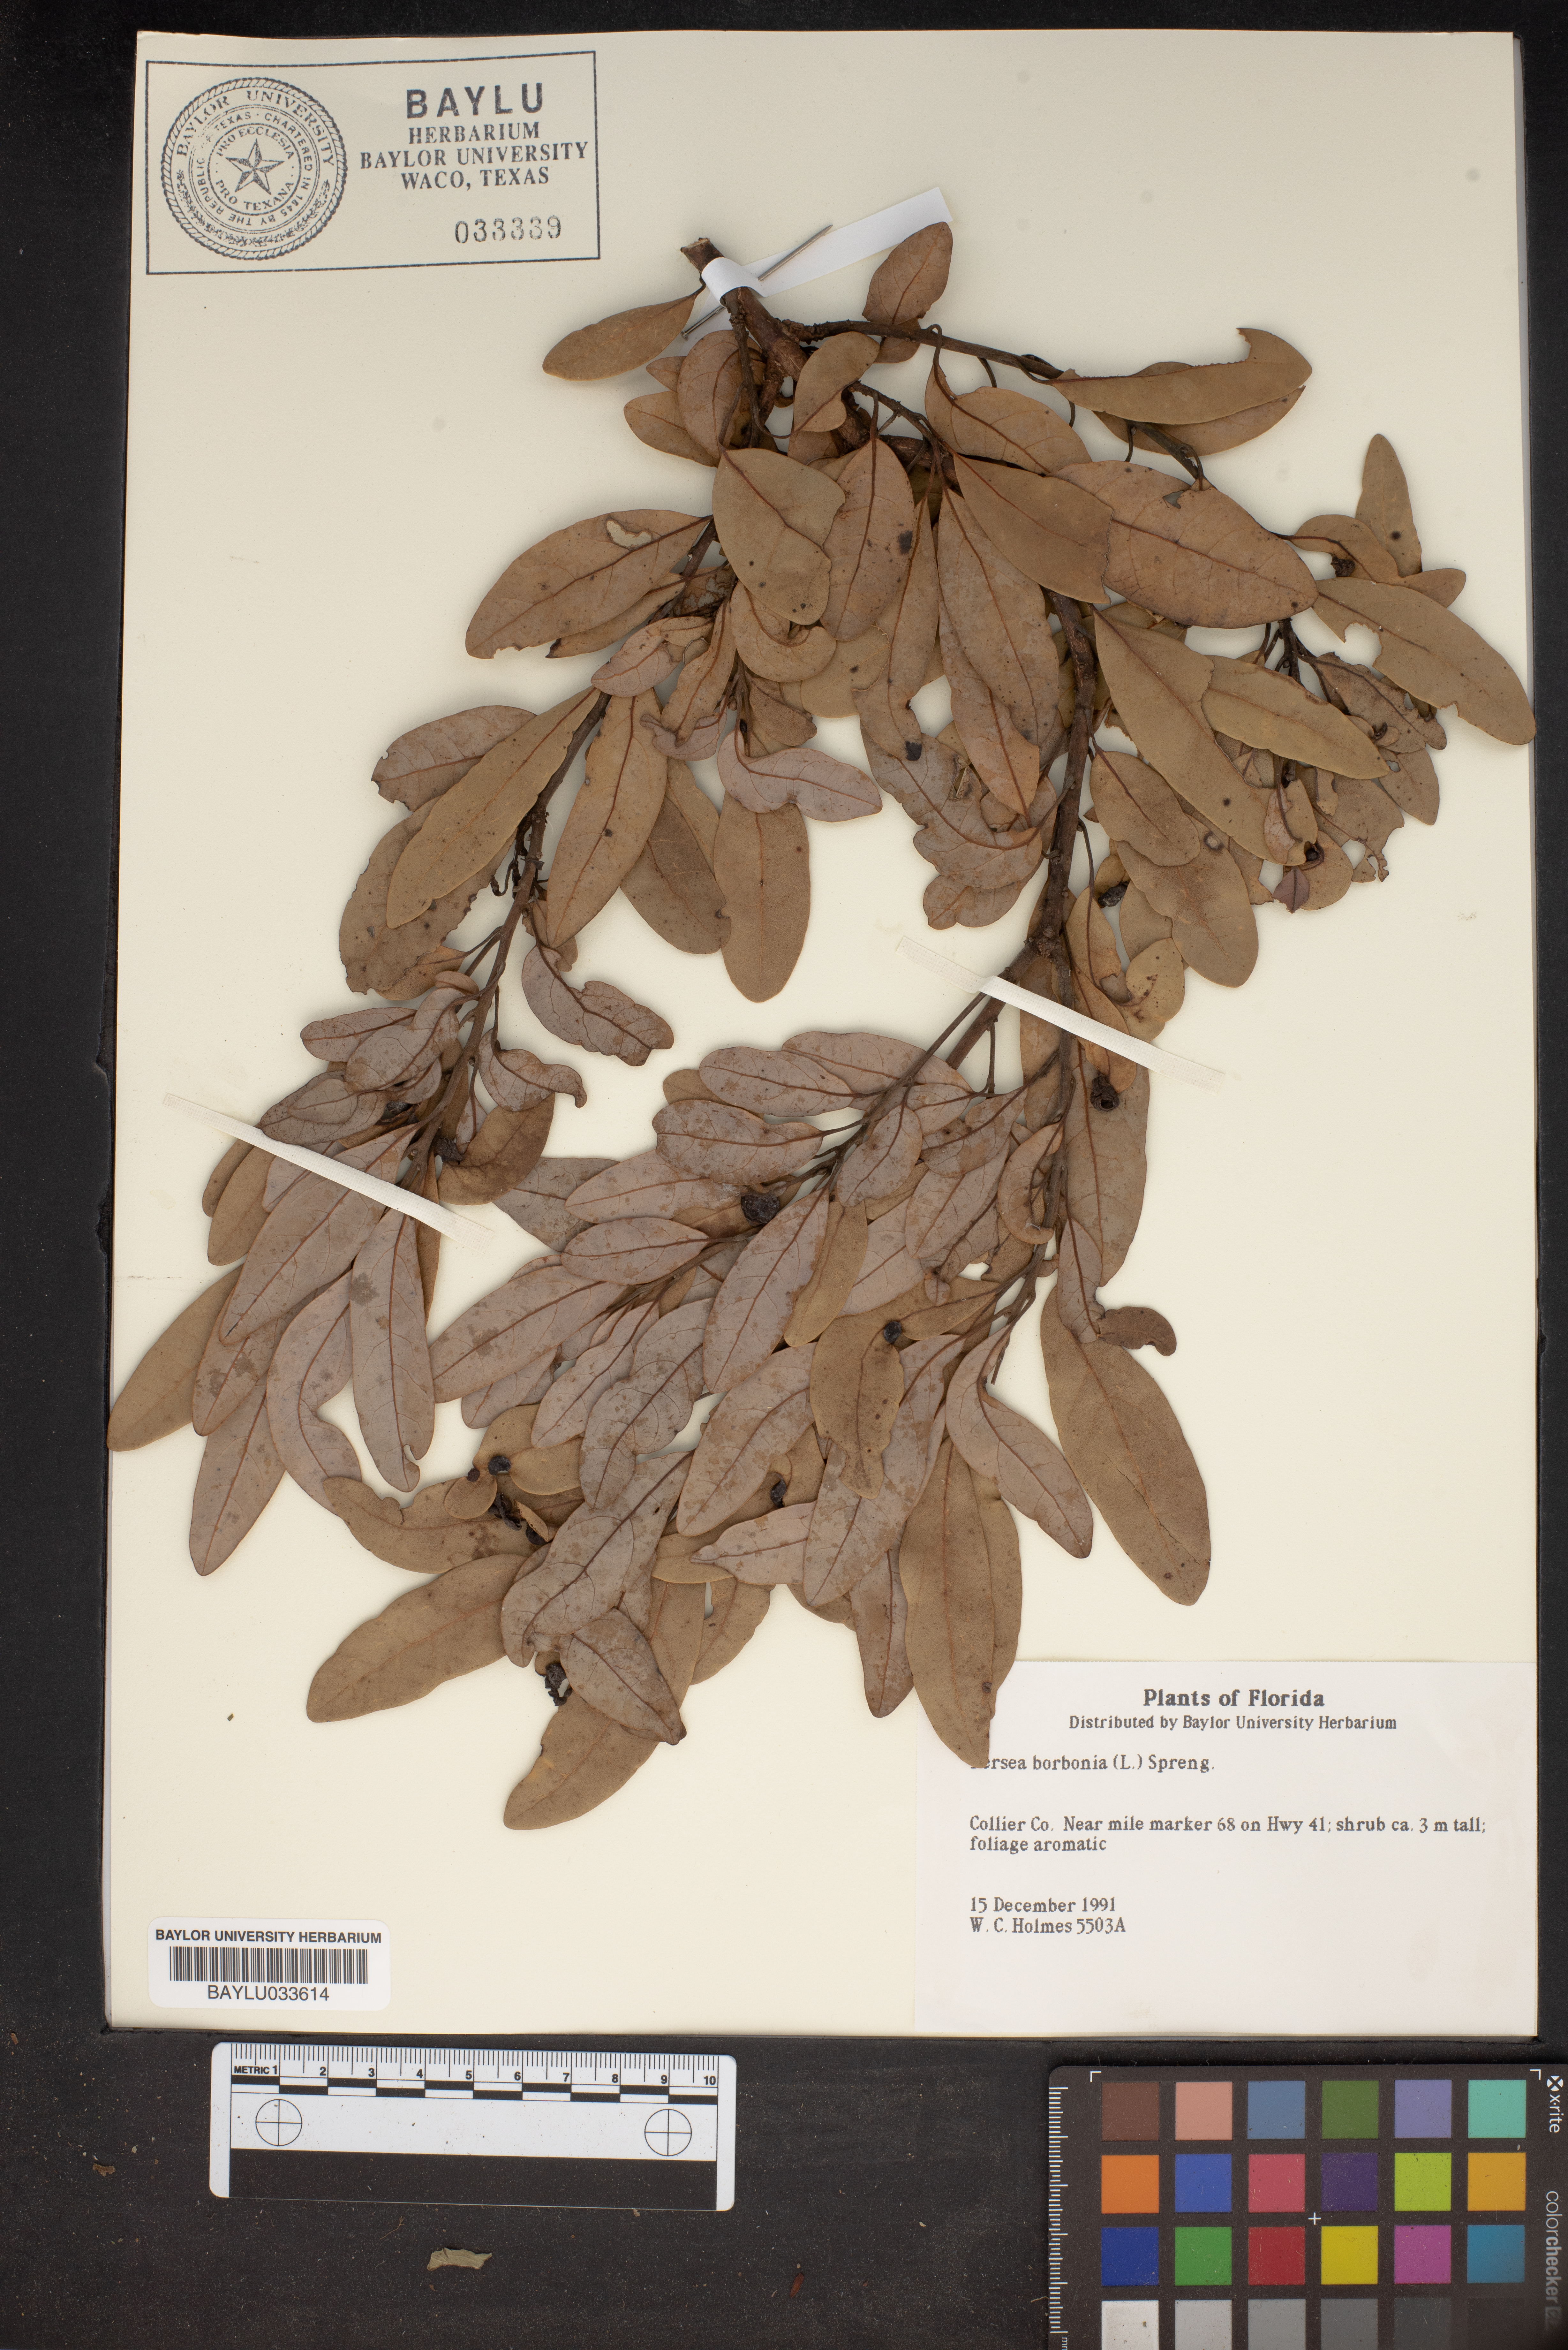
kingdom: Plantae
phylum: Tracheophyta
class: Magnoliopsida
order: Laurales
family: Lauraceae
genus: Persea
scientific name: Persea borbonia
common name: Redbay
